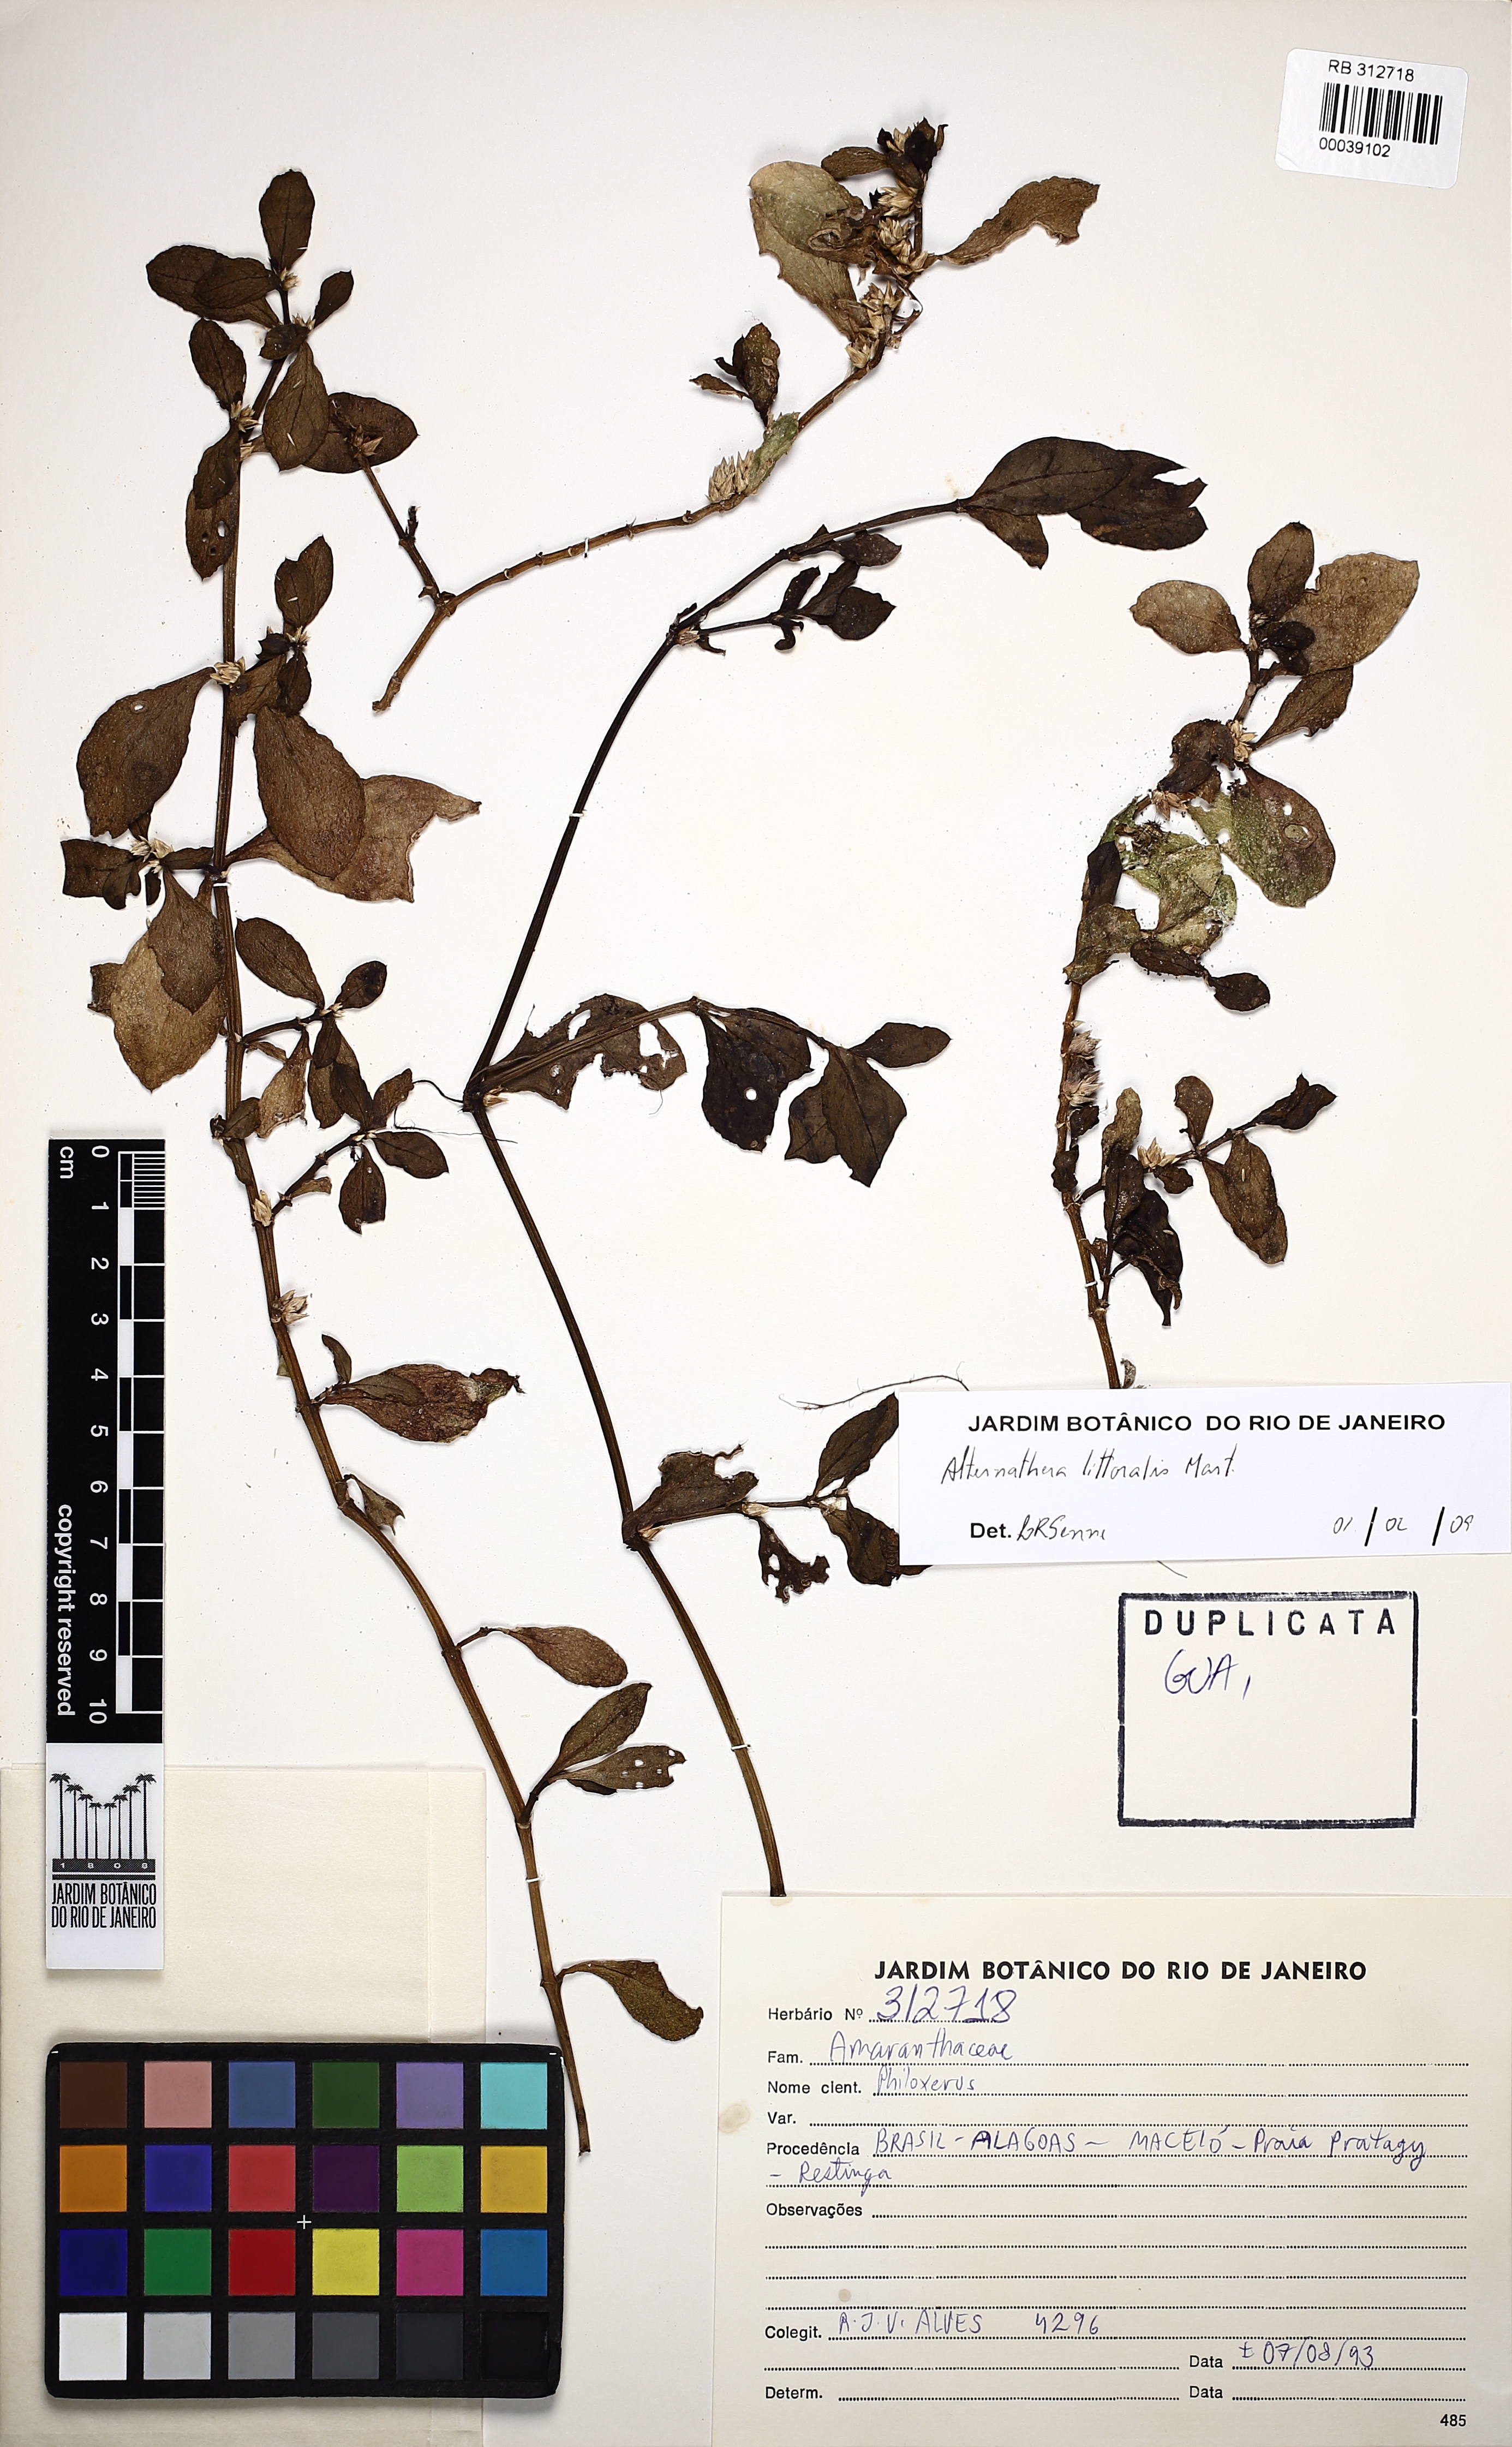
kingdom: Plantae
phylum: Tracheophyta
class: Magnoliopsida
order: Caryophyllales
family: Amaranthaceae
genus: Alternanthera
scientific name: Alternanthera littoralis
